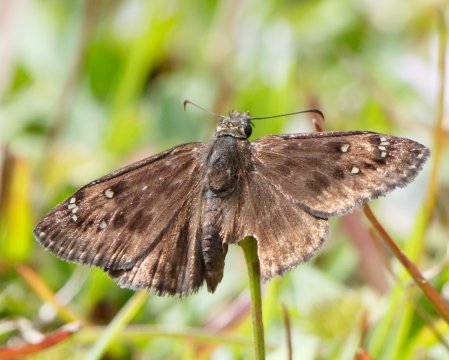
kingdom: Animalia
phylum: Arthropoda
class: Insecta
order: Lepidoptera
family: Hesperiidae
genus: Gesta
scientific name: Gesta
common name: Horace's Duskywing
